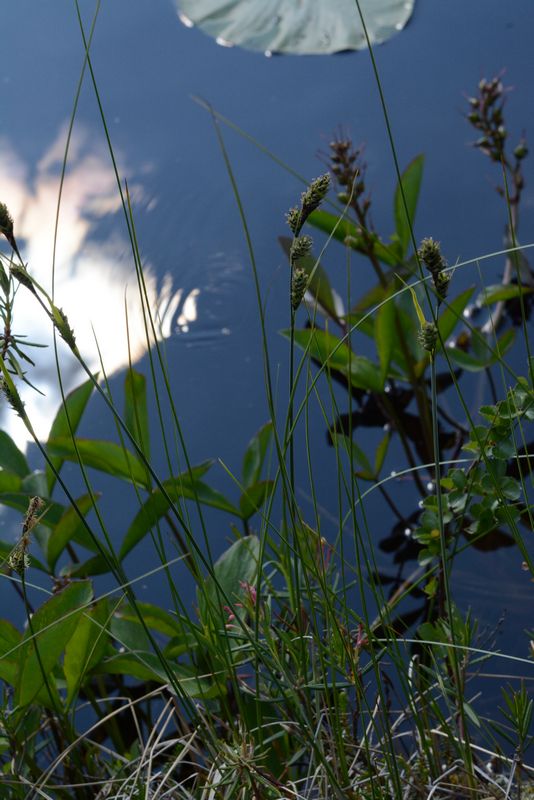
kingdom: Plantae
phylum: Tracheophyta
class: Liliopsida
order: Poales
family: Cyperaceae
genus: Carex
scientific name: Carex buxbaumii
